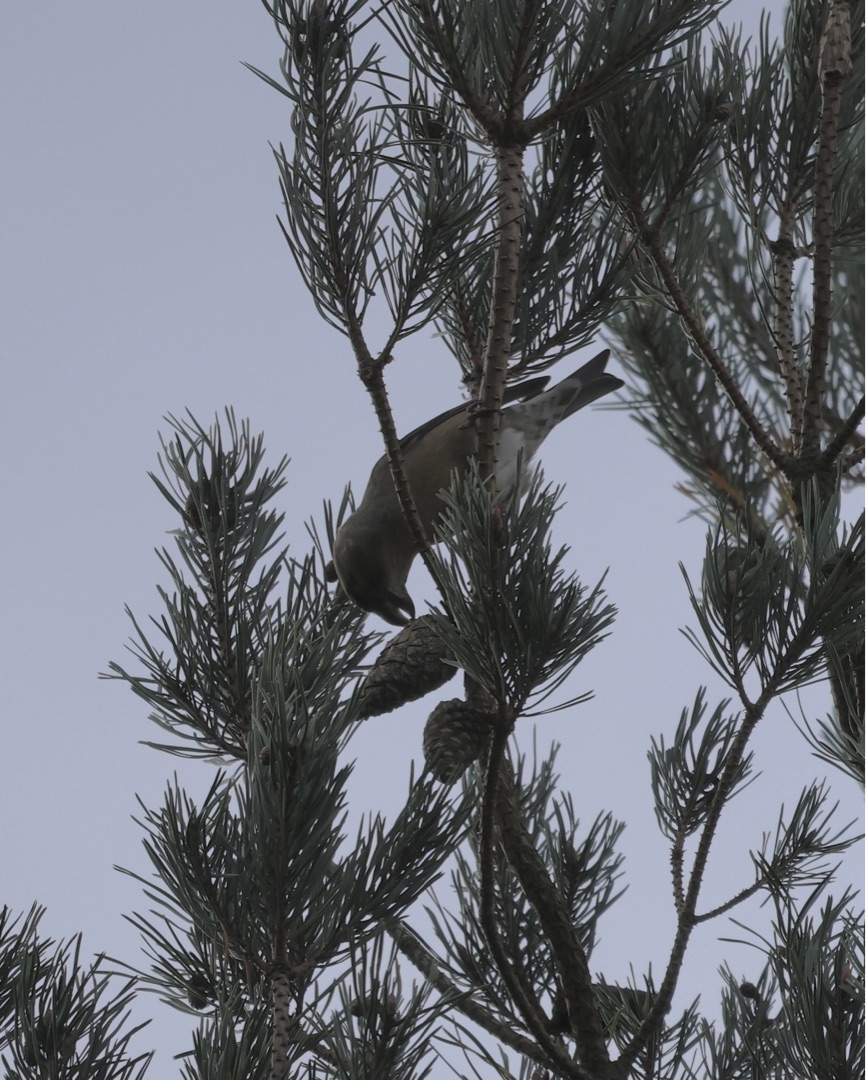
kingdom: Animalia
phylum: Chordata
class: Aves
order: Passeriformes
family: Fringillidae
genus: Loxia
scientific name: Loxia curvirostra
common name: Lille korsnæb
